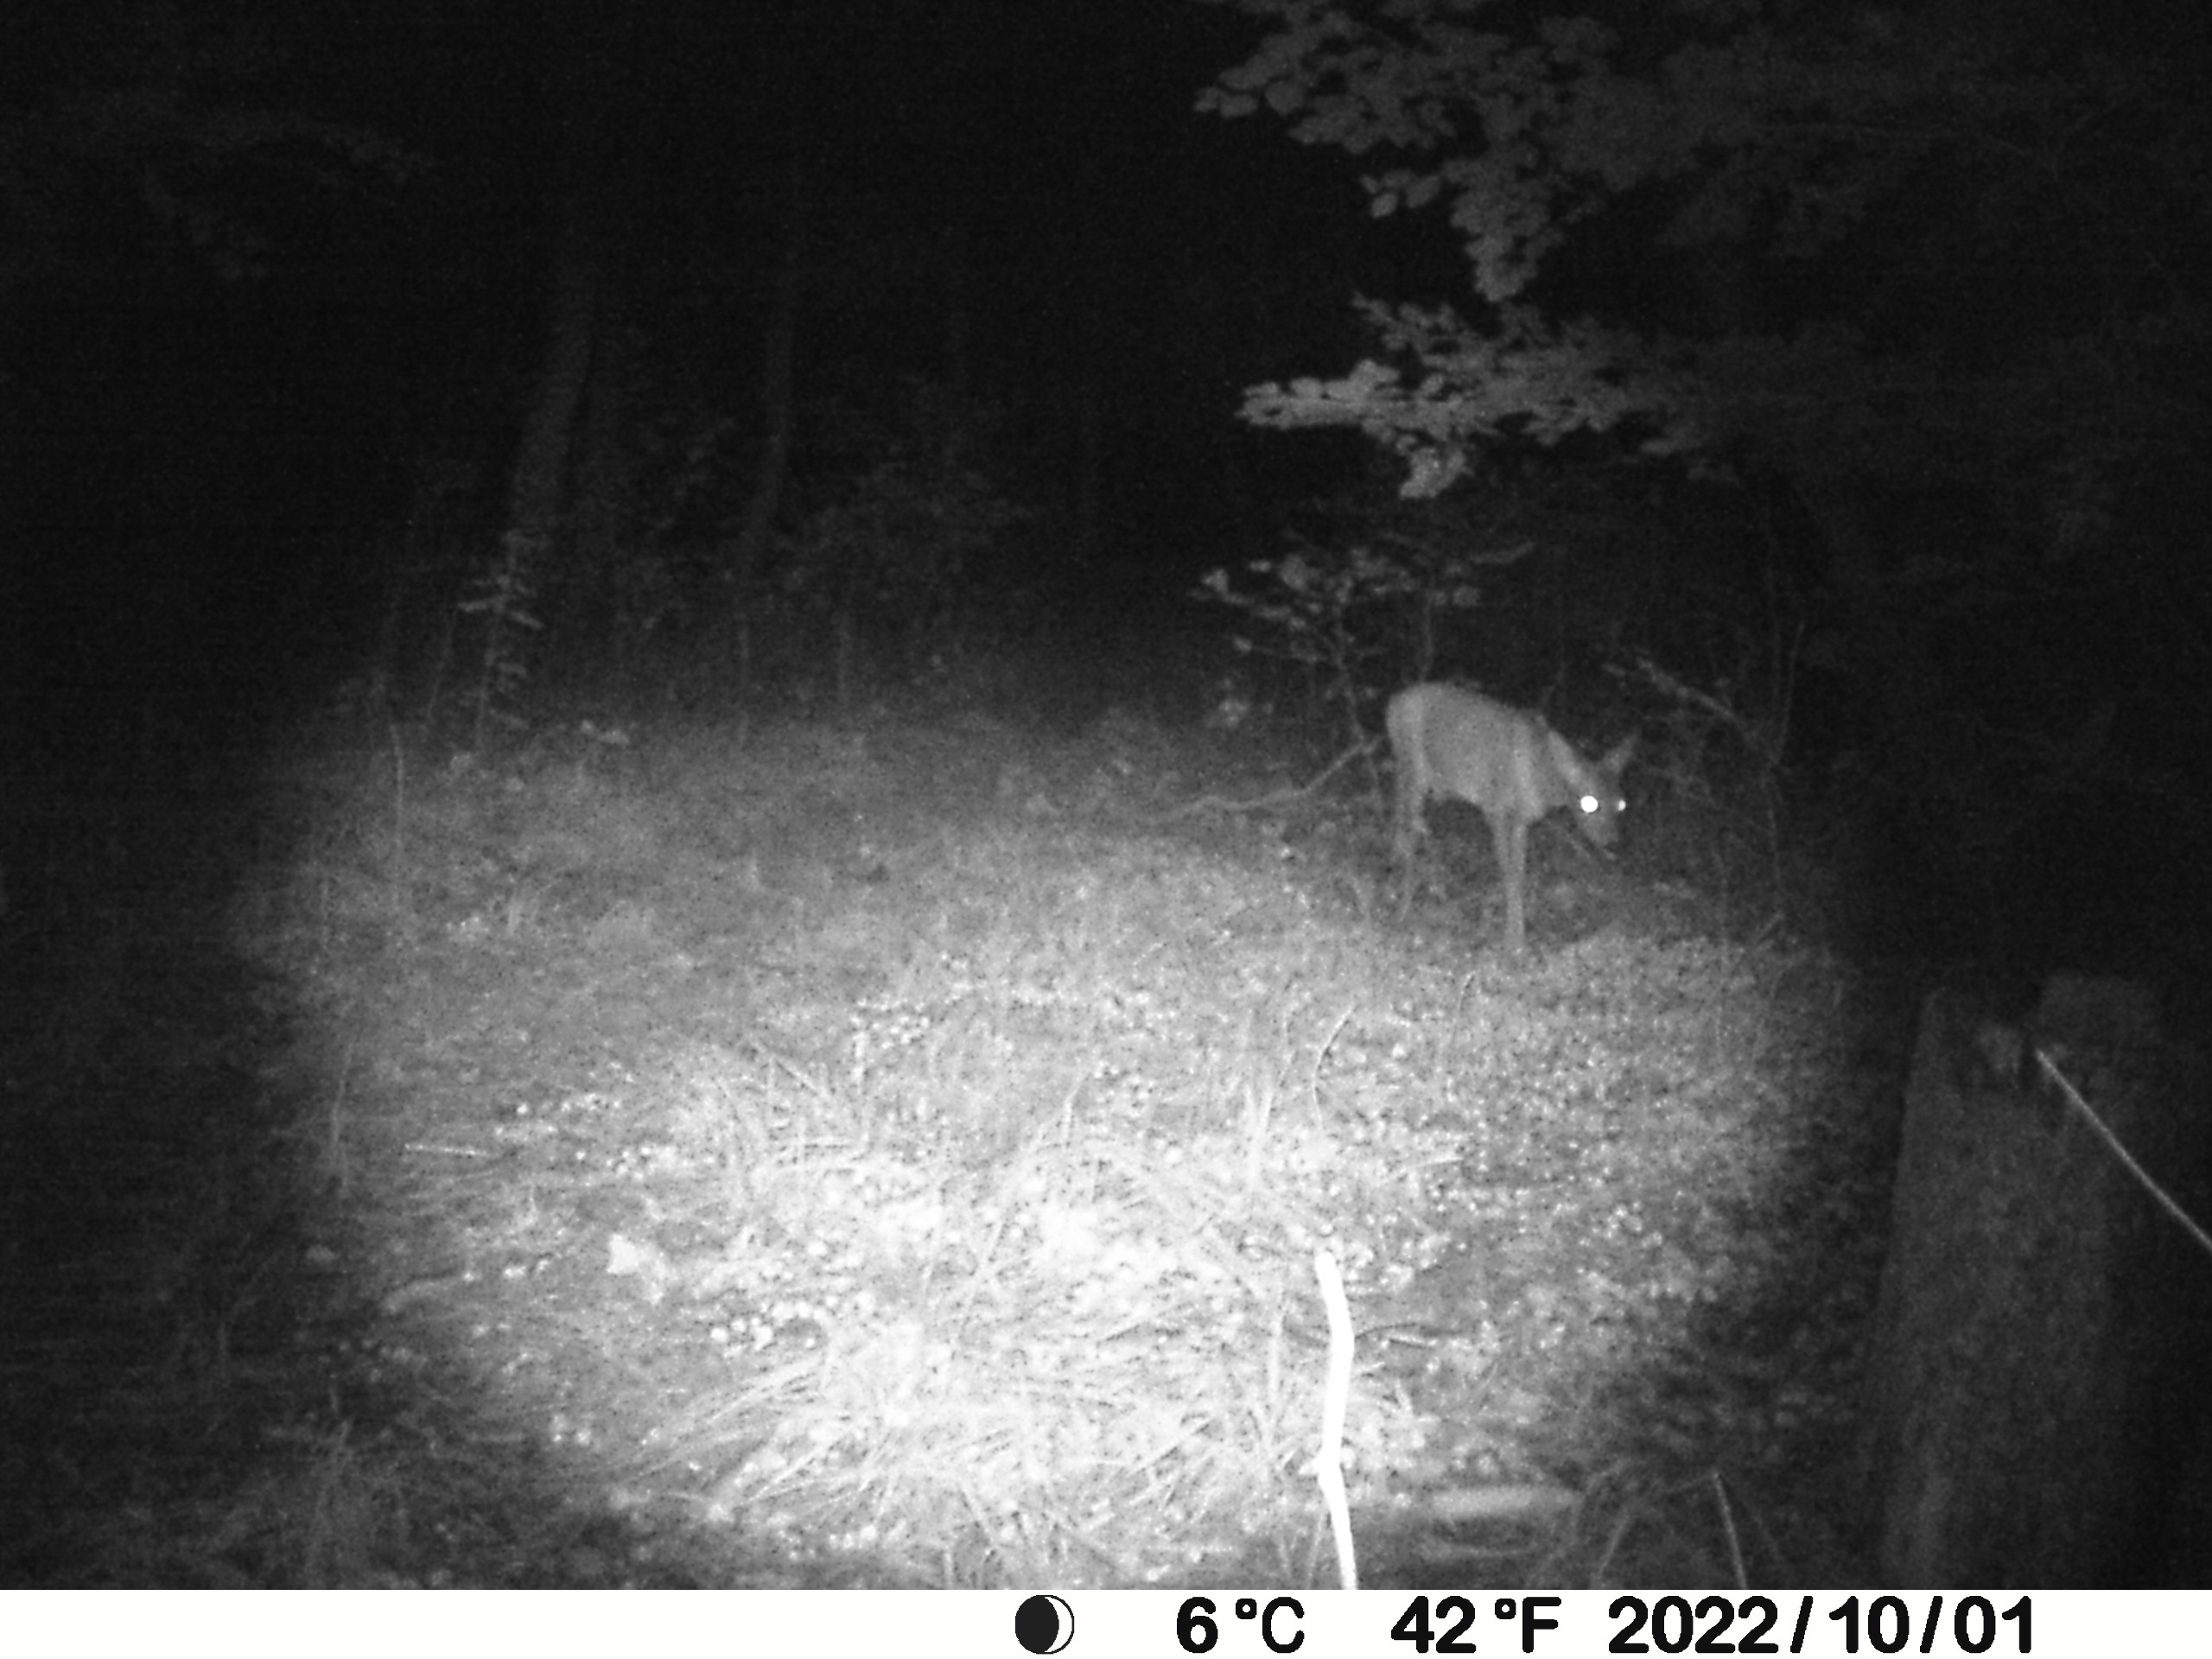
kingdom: Animalia
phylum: Chordata
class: Mammalia
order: Artiodactyla
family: Cervidae
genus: Capreolus
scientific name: Capreolus capreolus
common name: Rådyr
